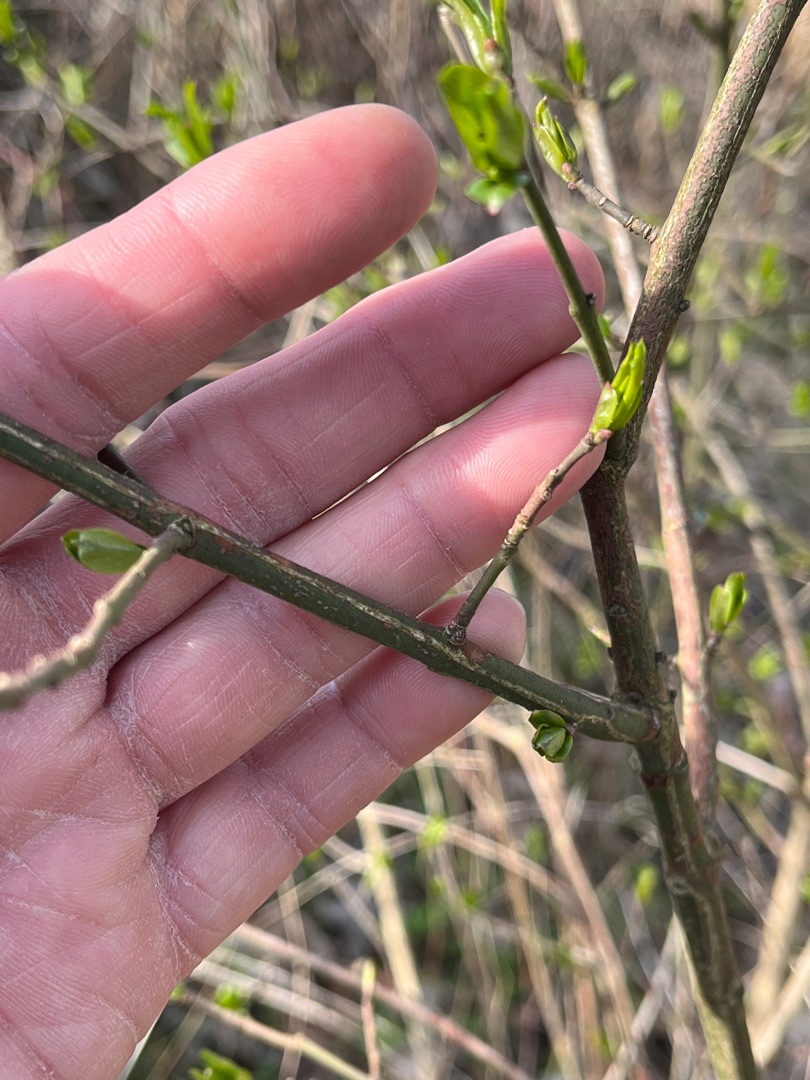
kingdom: Plantae
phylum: Tracheophyta
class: Magnoliopsida
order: Celastrales
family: Celastraceae
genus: Euonymus
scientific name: Euonymus europaeus
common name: Benved
